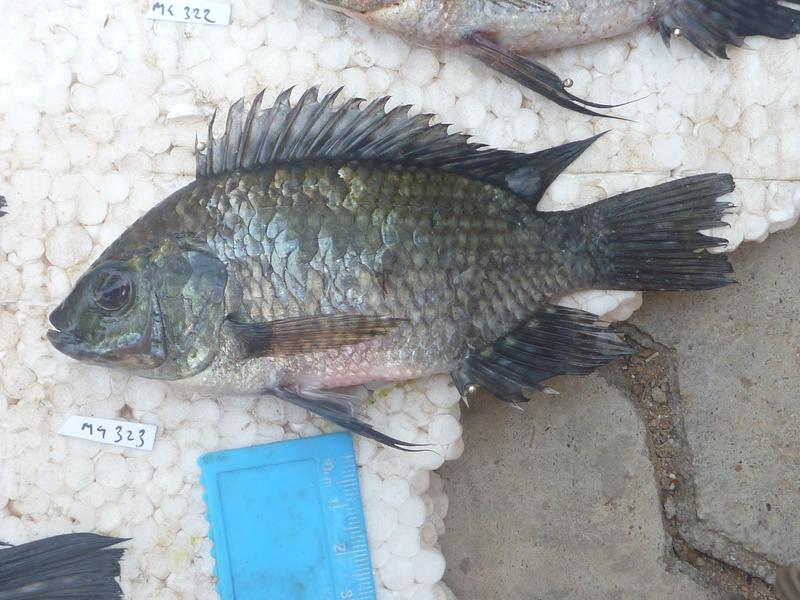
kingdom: Animalia
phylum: Chordata
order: Perciformes
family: Cichlidae
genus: Oreochromis
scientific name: Oreochromis leucostictus
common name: Blue spotted tilapia
